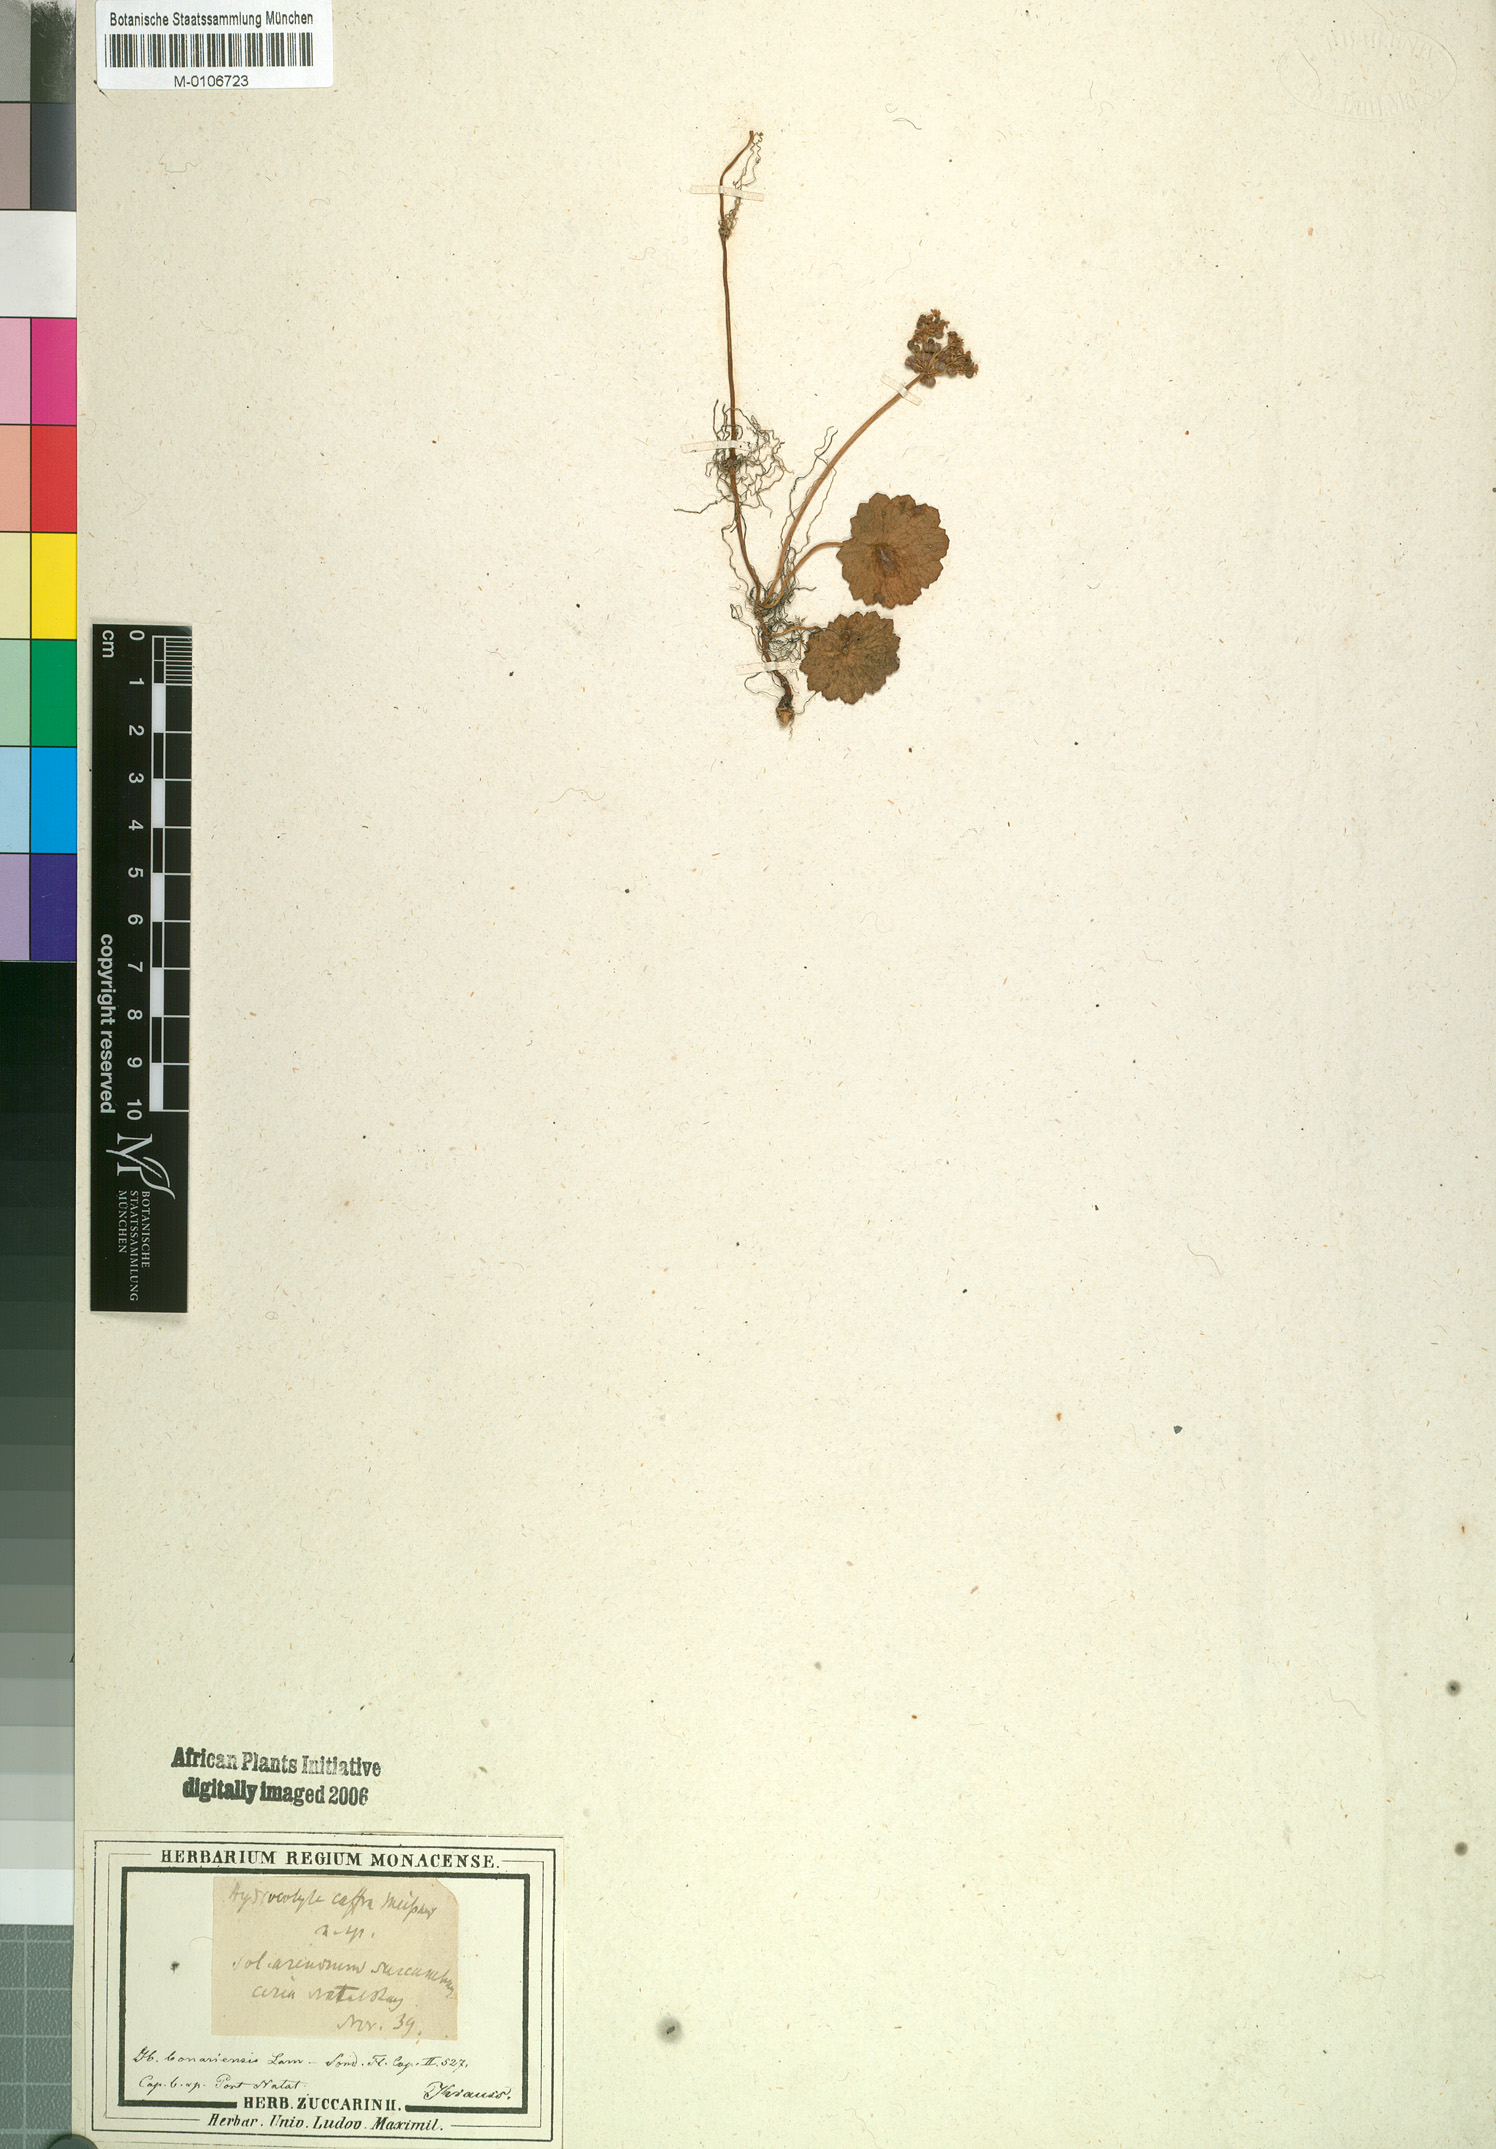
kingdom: Plantae
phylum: Tracheophyta
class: Magnoliopsida
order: Apiales
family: Araliaceae
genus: Hydrocotyle
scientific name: Hydrocotyle bonariensis
